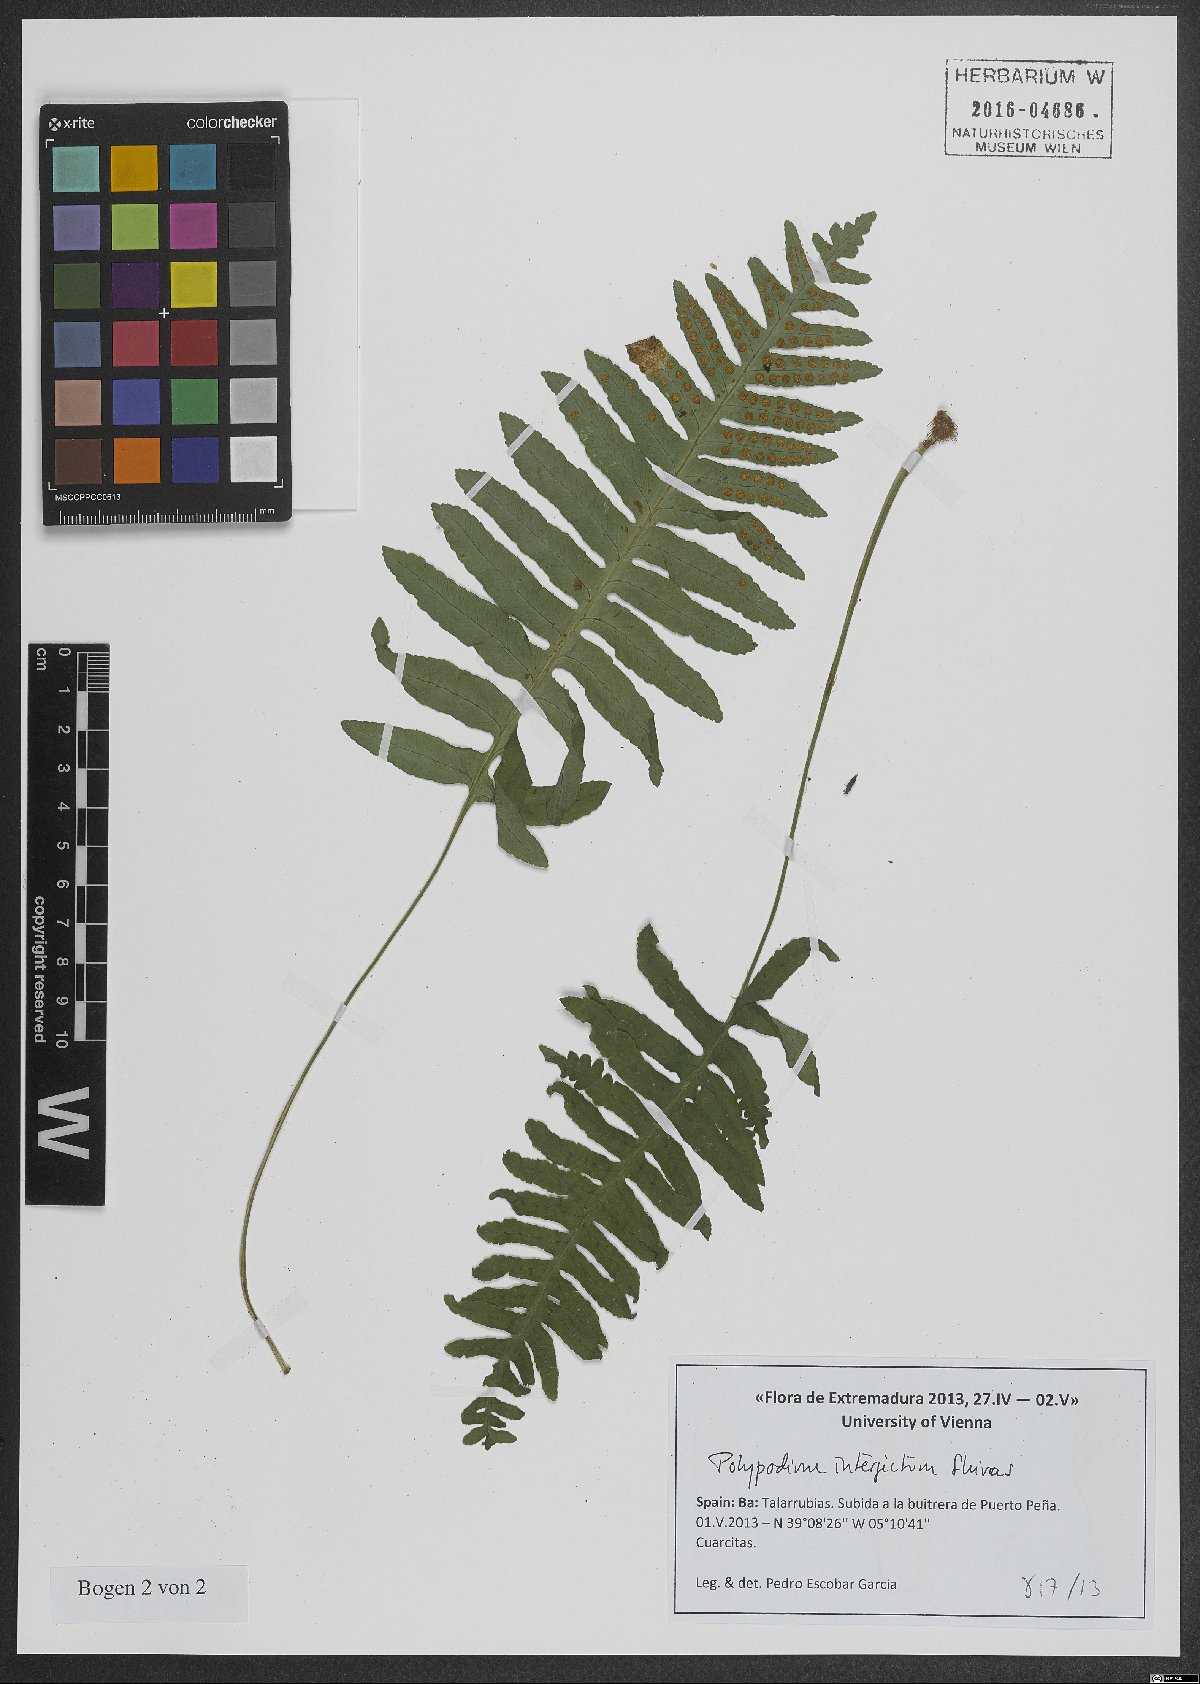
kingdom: Plantae
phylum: Tracheophyta
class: Polypodiopsida
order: Polypodiales
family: Polypodiaceae
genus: Polypodium
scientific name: Polypodium interjectum
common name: Intermediate polypody
